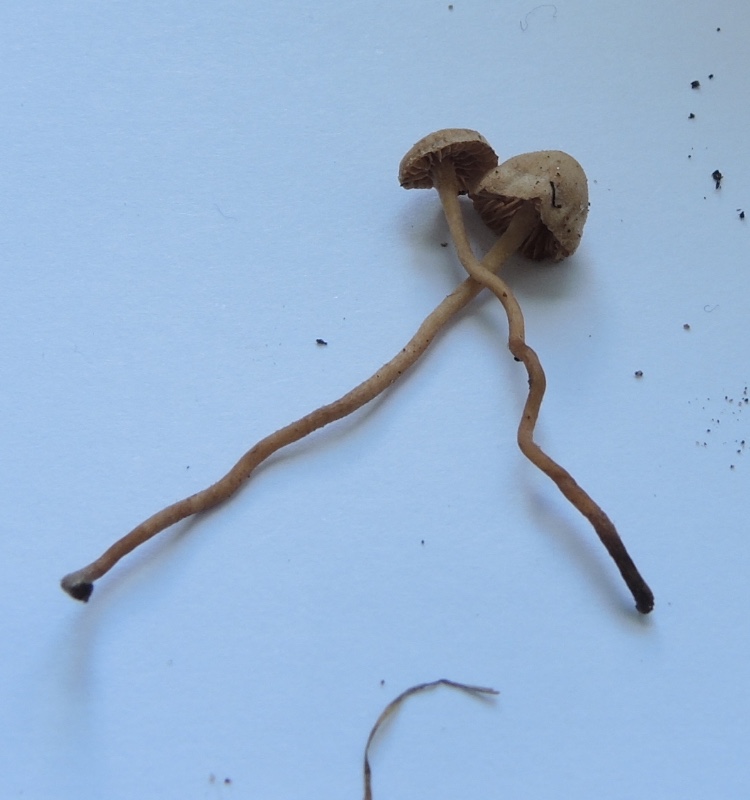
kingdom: Fungi
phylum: Basidiomycota
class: Agaricomycetes
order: Agaricales
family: Tubariaceae
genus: Flammulaster
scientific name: Flammulaster carpophilus
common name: rombesporet grynskælhat
